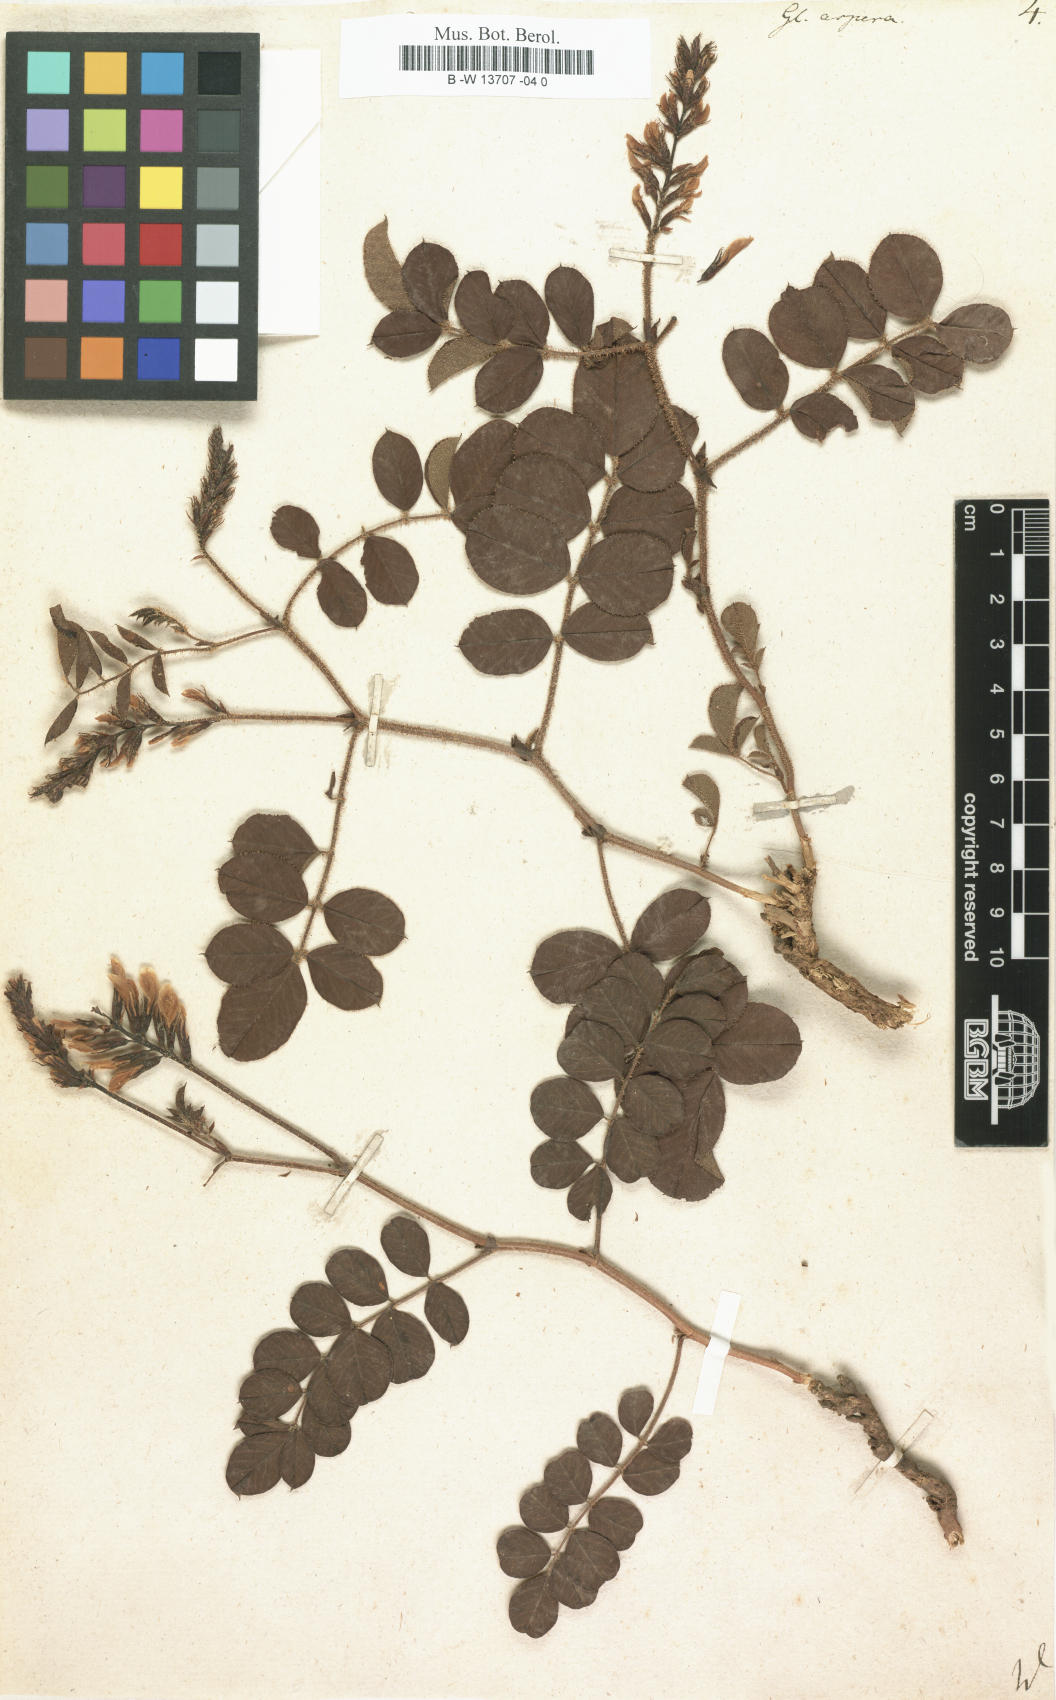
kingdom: Plantae
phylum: Tracheophyta
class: Magnoliopsida
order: Fabales
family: Fabaceae
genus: Glycyrrhiza
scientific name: Glycyrrhiza aspera
